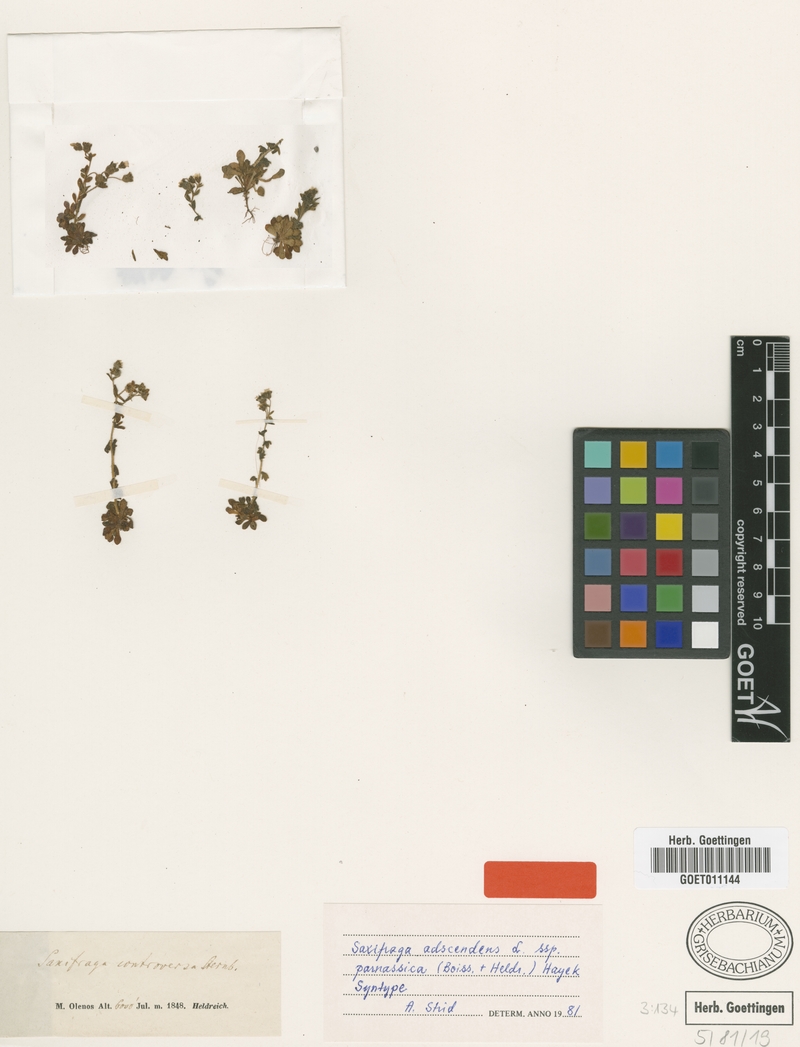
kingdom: Plantae
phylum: Tracheophyta
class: Magnoliopsida
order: Saxifragales
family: Saxifragaceae
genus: Saxifraga
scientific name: Saxifraga adscendens
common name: Ascending saxifrage
